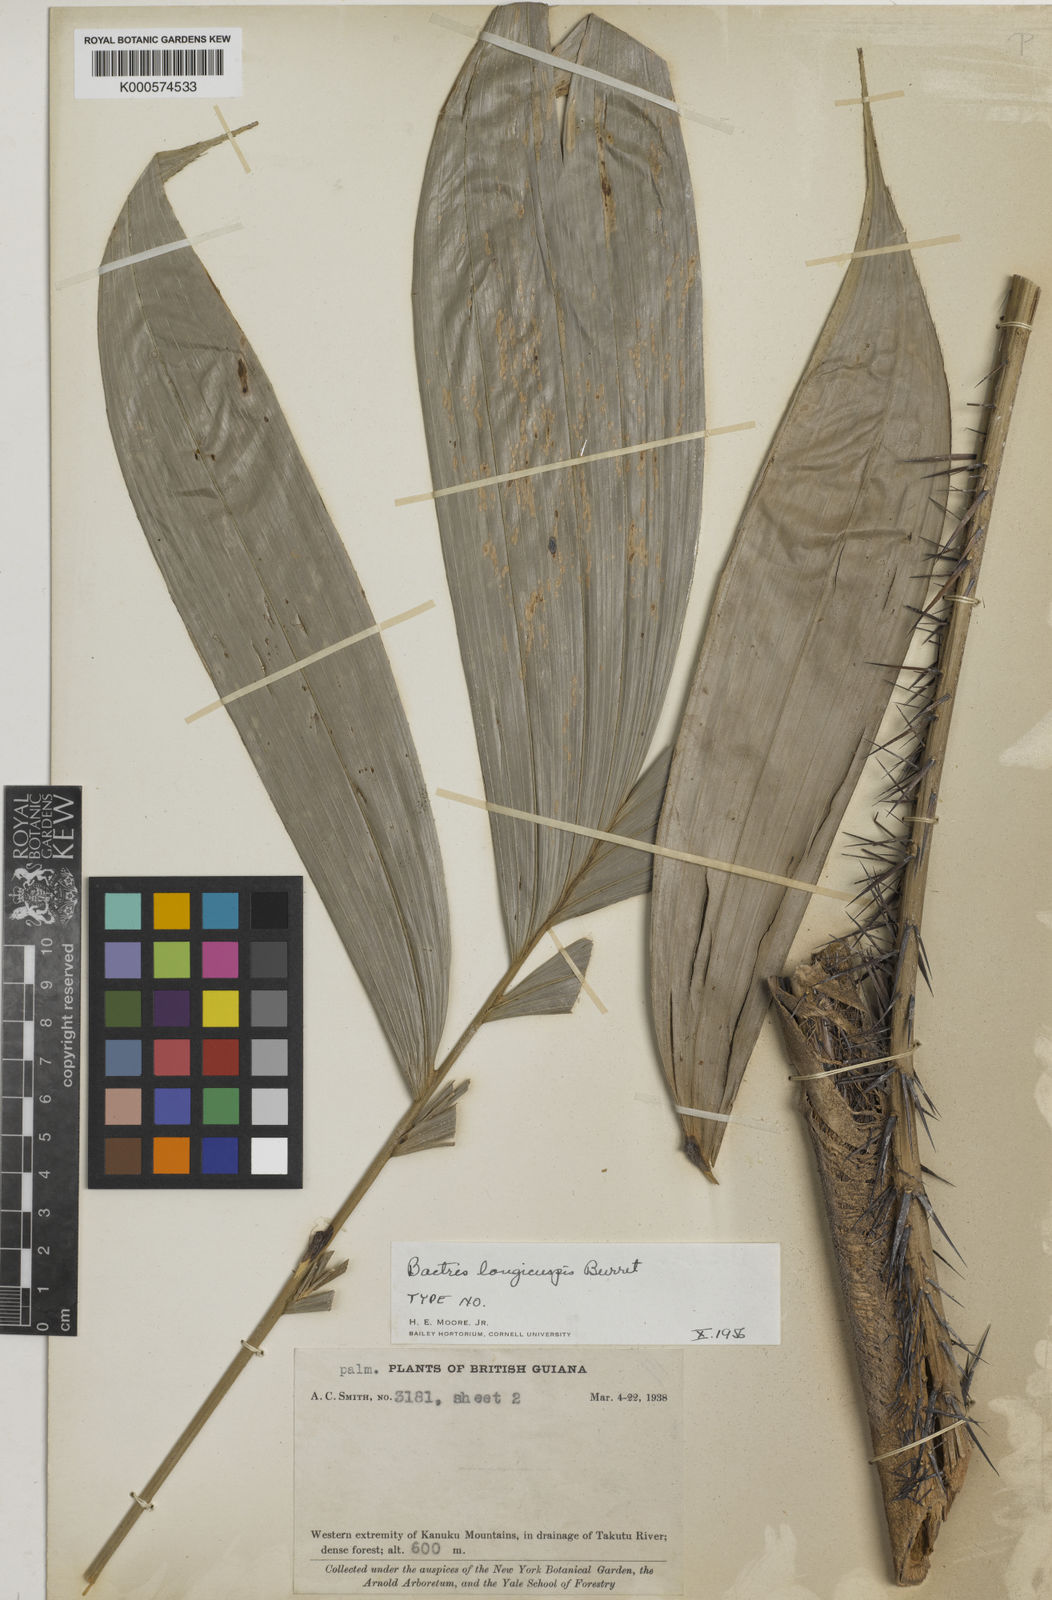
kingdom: Plantae
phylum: Tracheophyta
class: Liliopsida
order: Arecales
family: Arecaceae
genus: Bactris
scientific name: Bactris maraja
